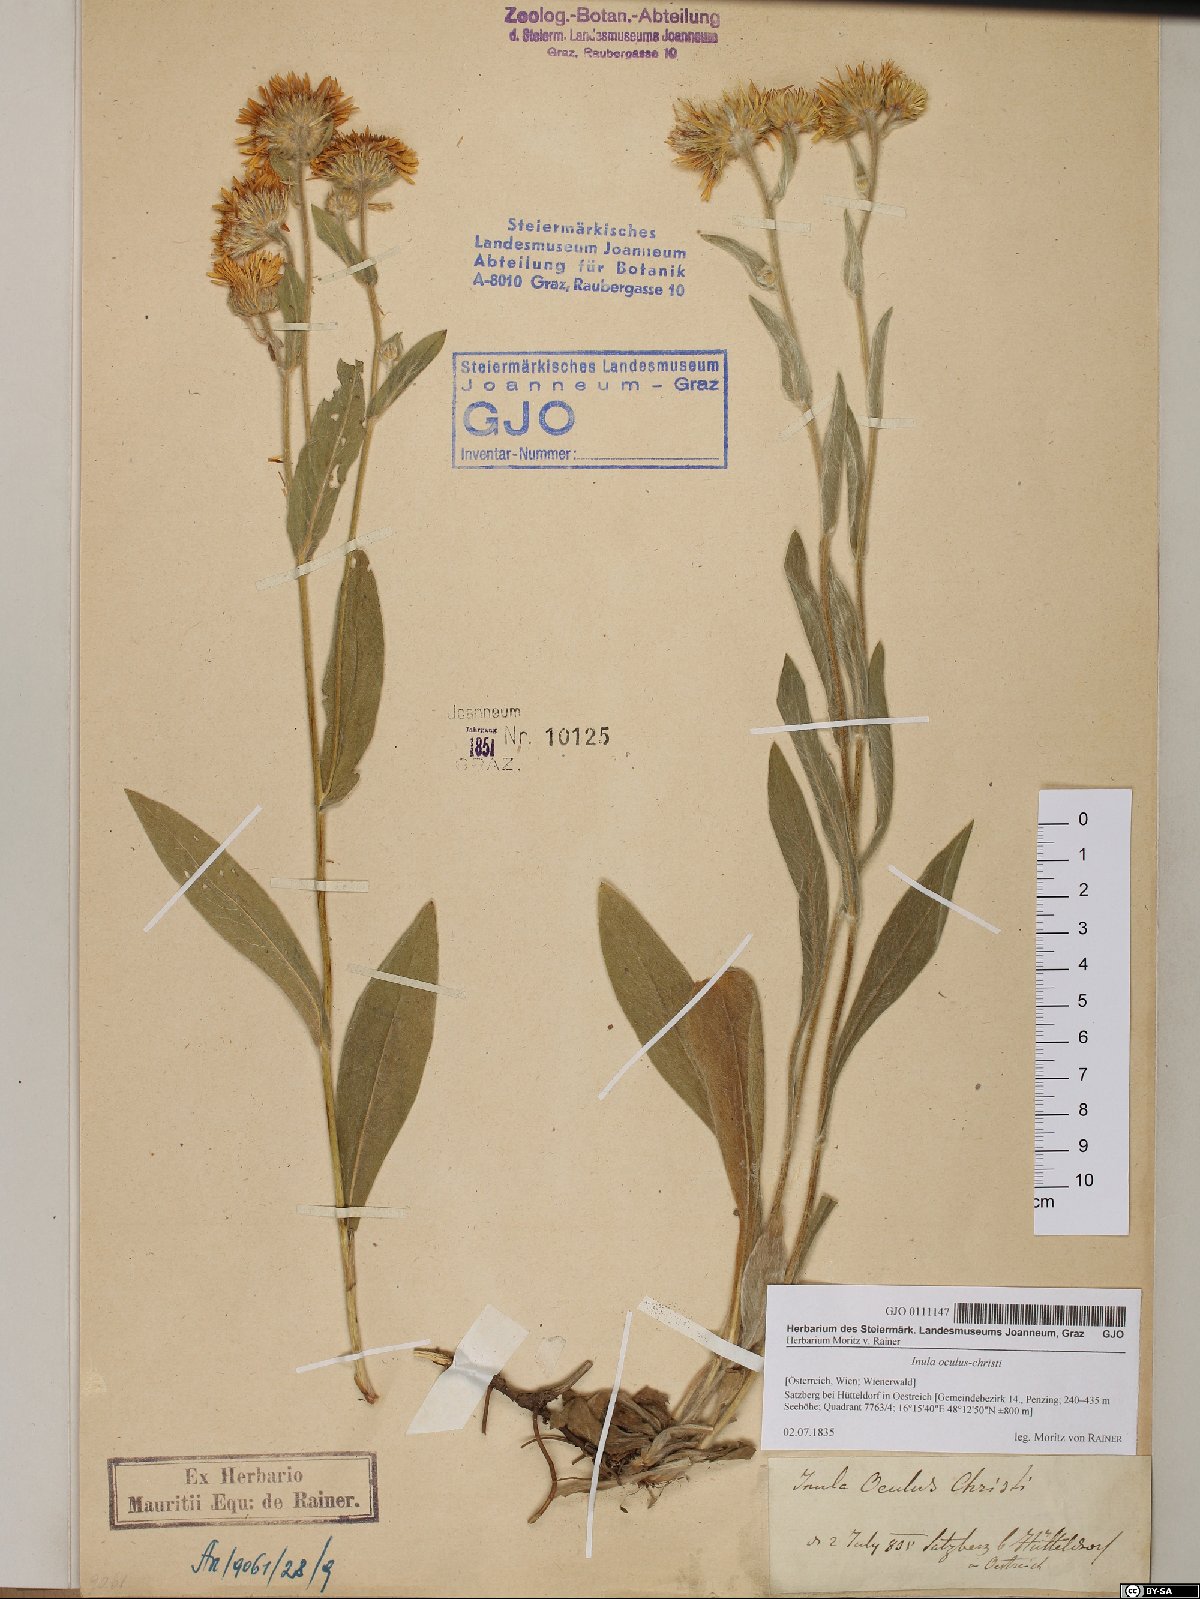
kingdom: Plantae
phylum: Tracheophyta
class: Magnoliopsida
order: Asterales
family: Asteraceae
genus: Pentanema
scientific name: Pentanema oculus-christi
